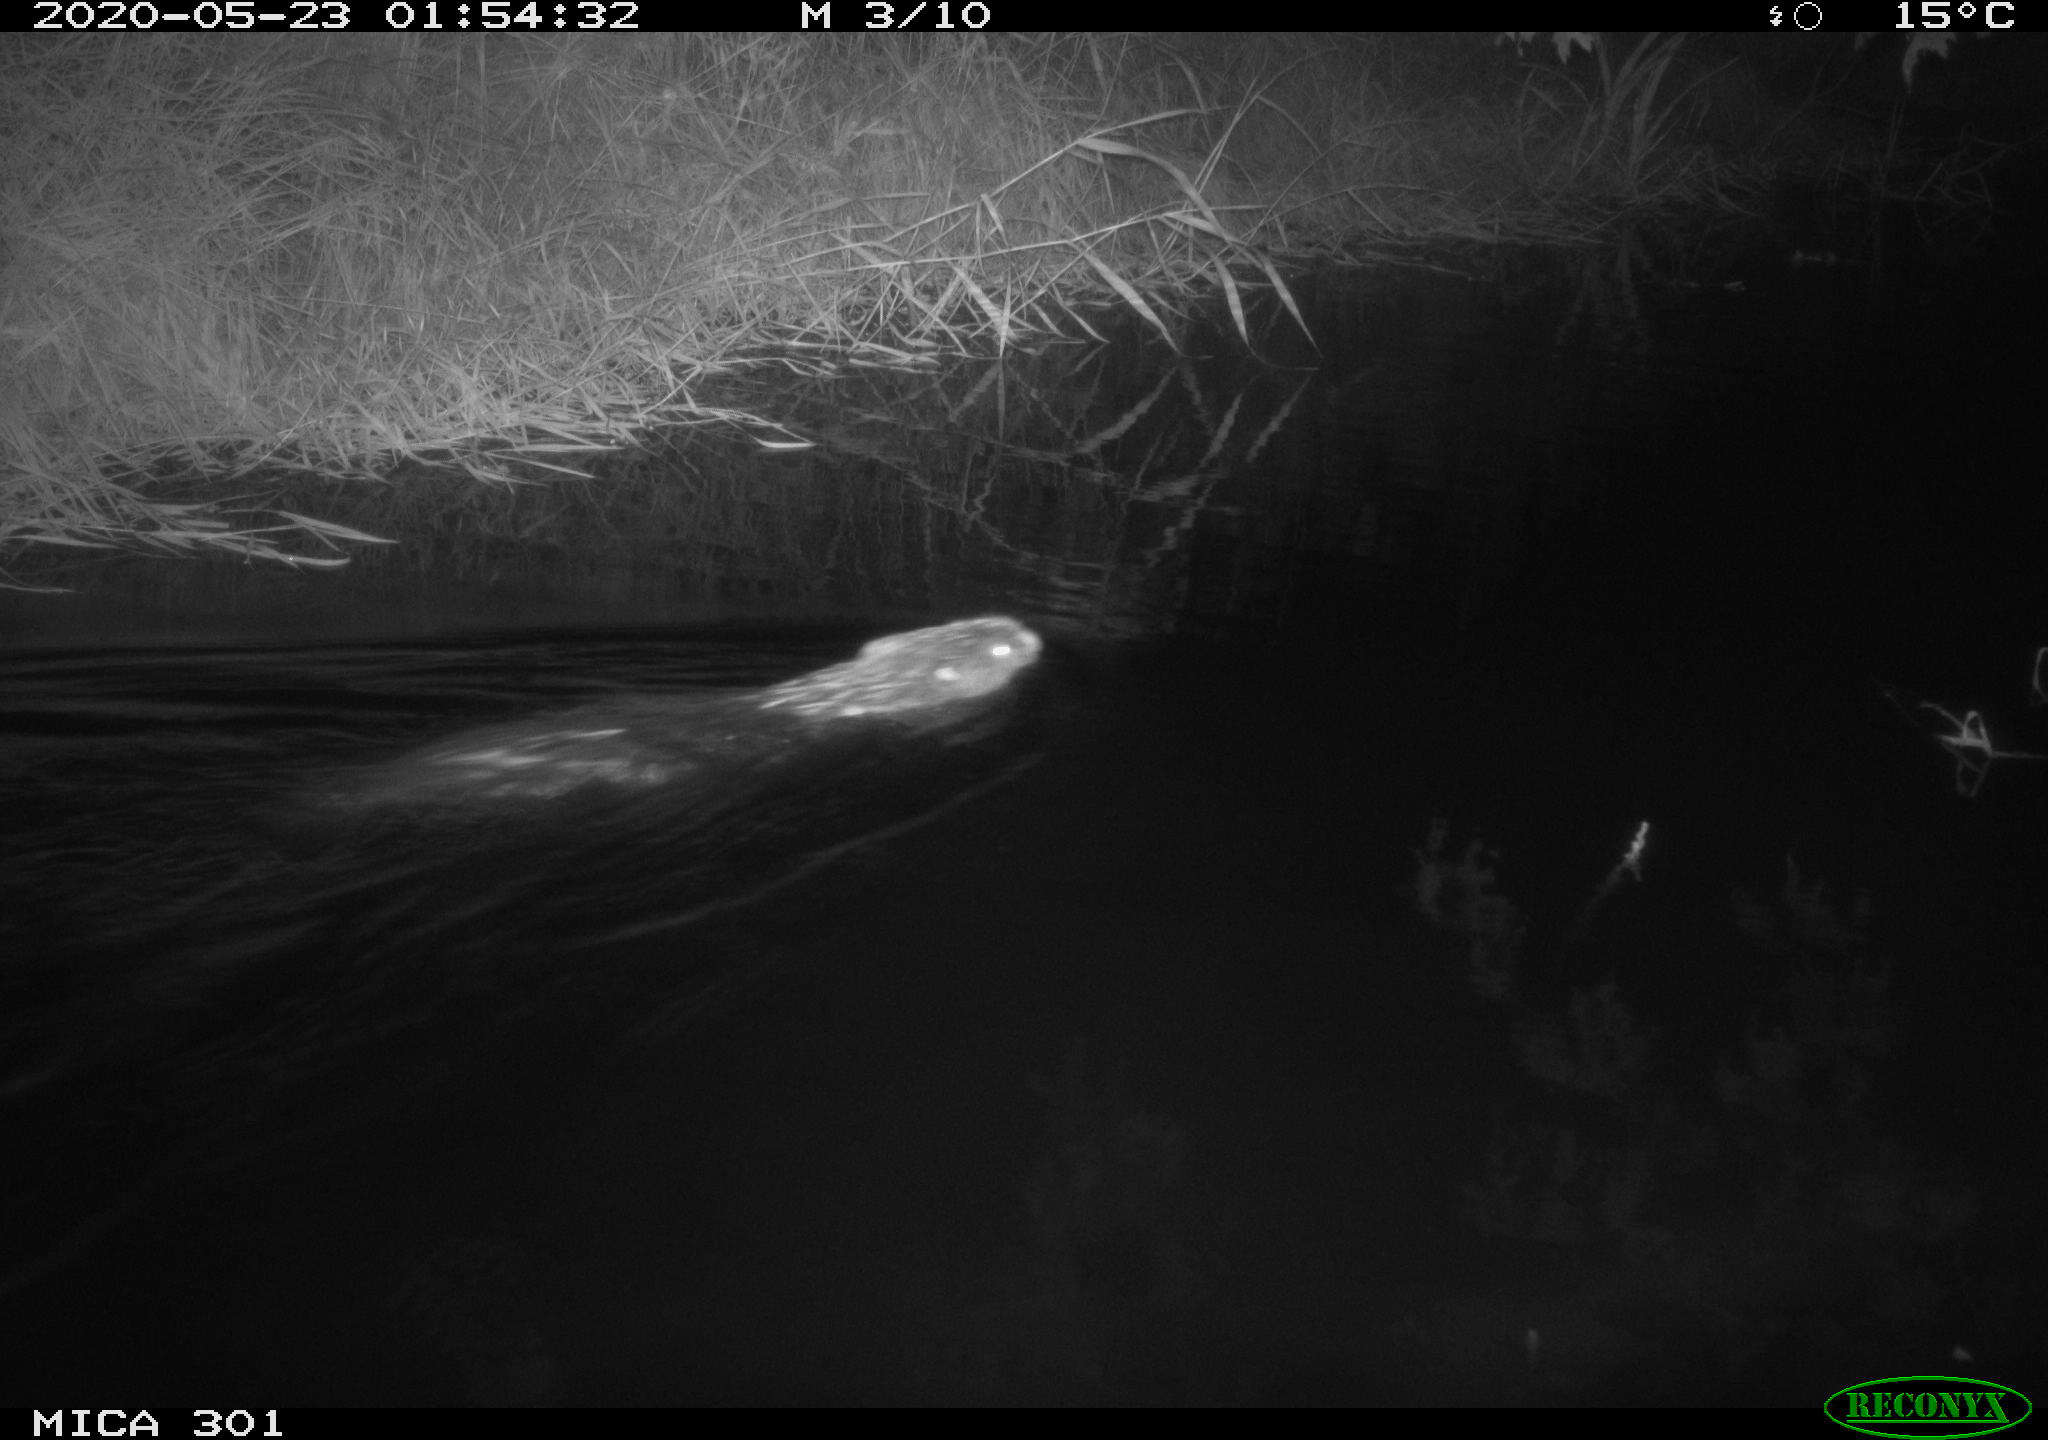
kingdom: Animalia
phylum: Chordata
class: Mammalia
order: Rodentia
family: Castoridae
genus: Castor
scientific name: Castor fiber
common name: Eurasian beaver
